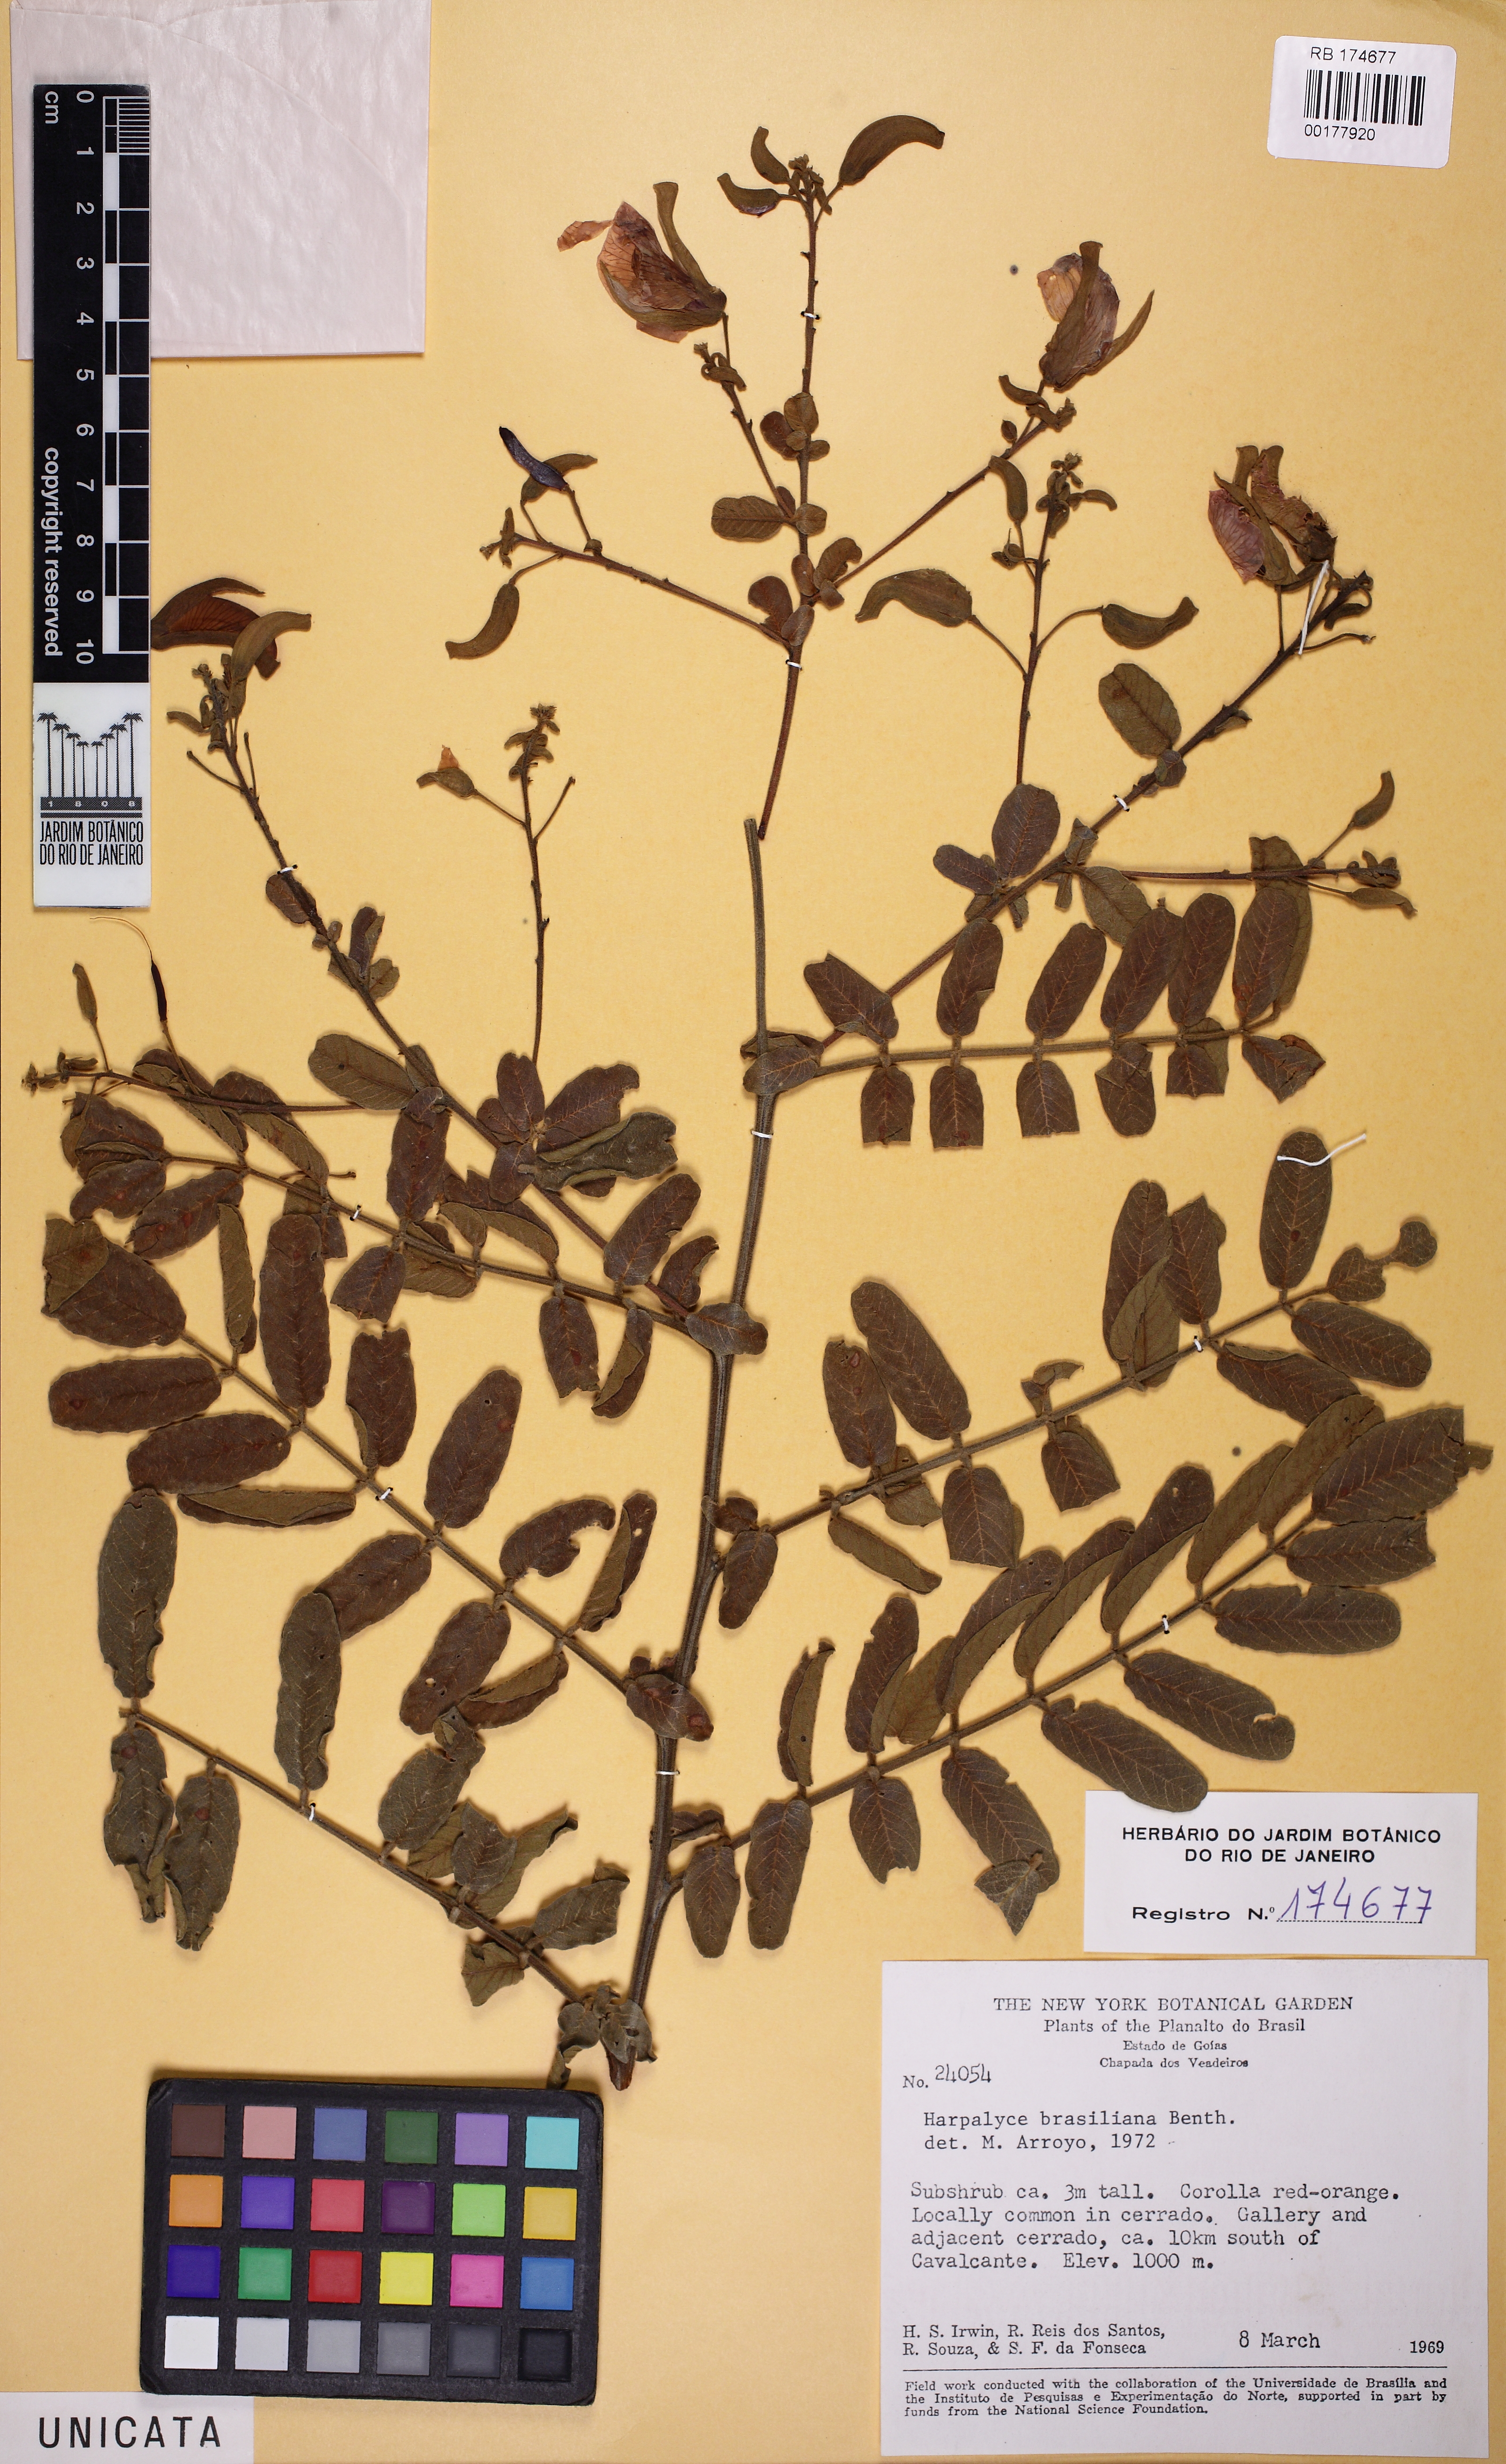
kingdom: Plantae
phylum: Tracheophyta
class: Magnoliopsida
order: Fabales
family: Fabaceae
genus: Harpalyce
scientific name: Harpalyce brasiliana
